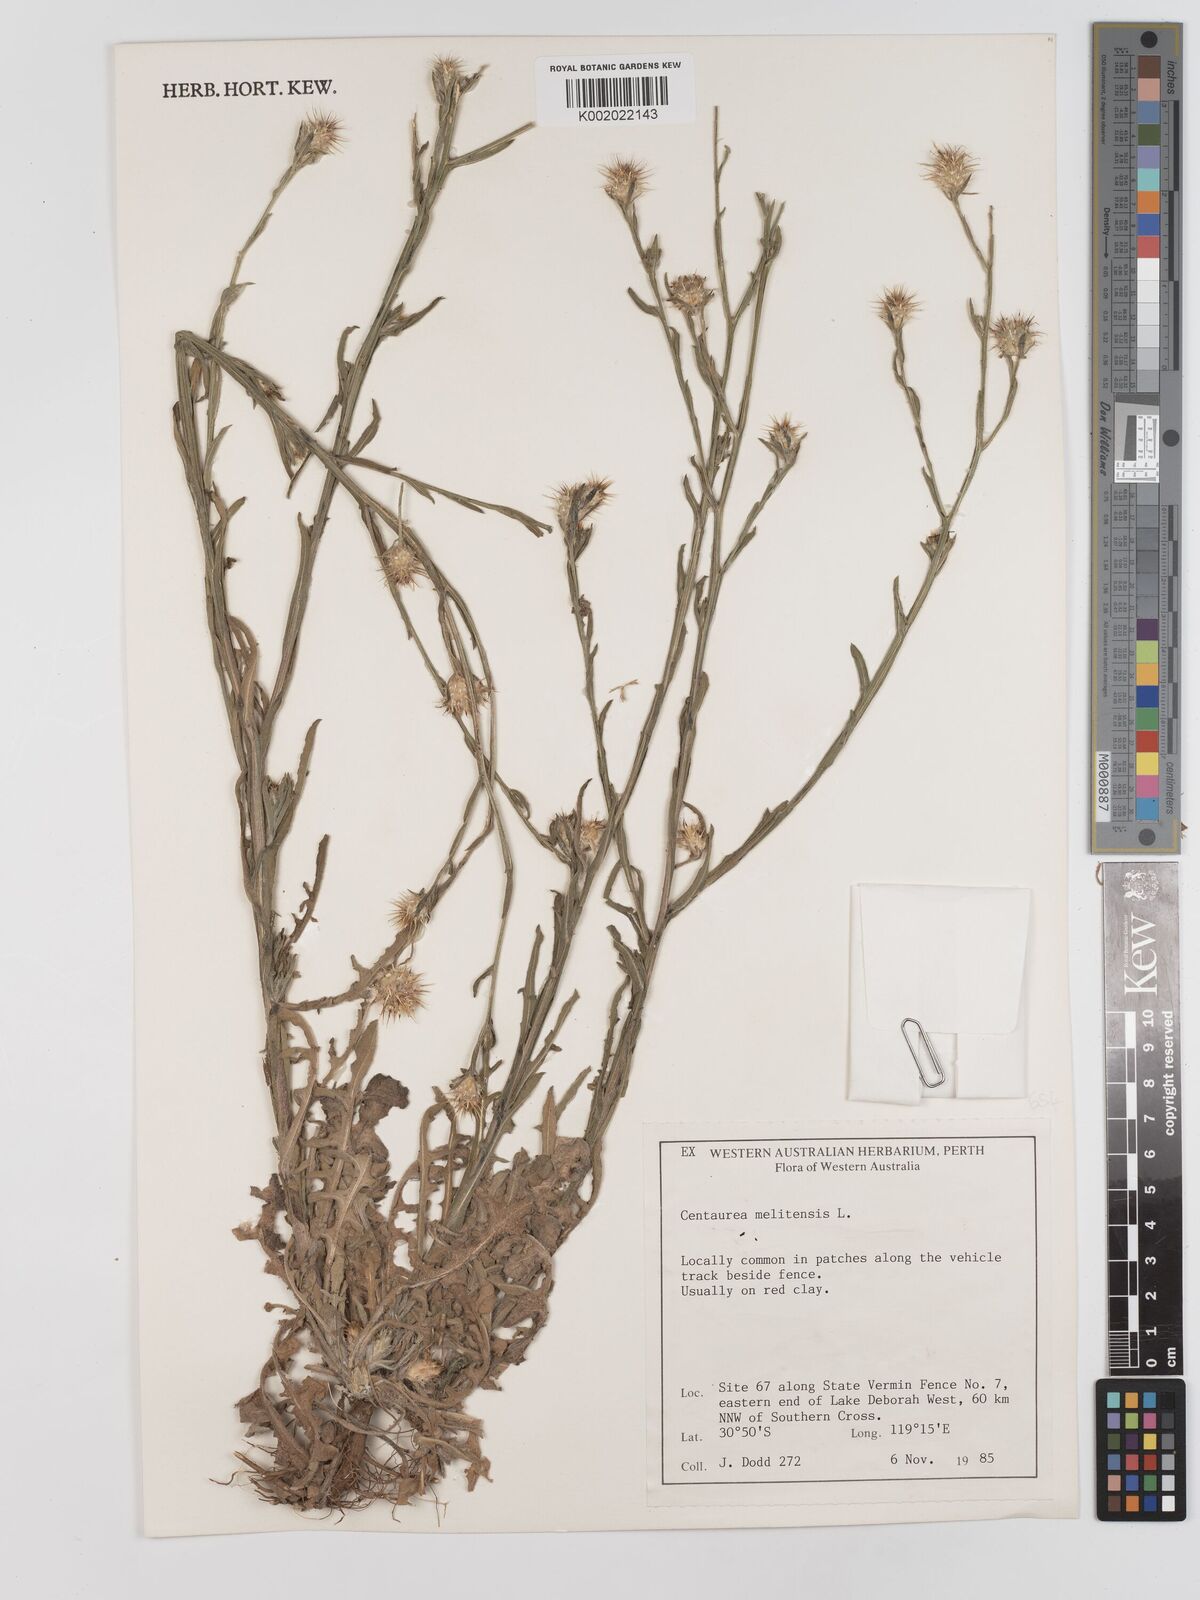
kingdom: Plantae
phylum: Tracheophyta
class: Magnoliopsida
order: Asterales
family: Asteraceae
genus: Centaurea
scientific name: Centaurea melitensis
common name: Maltese star-thistle
